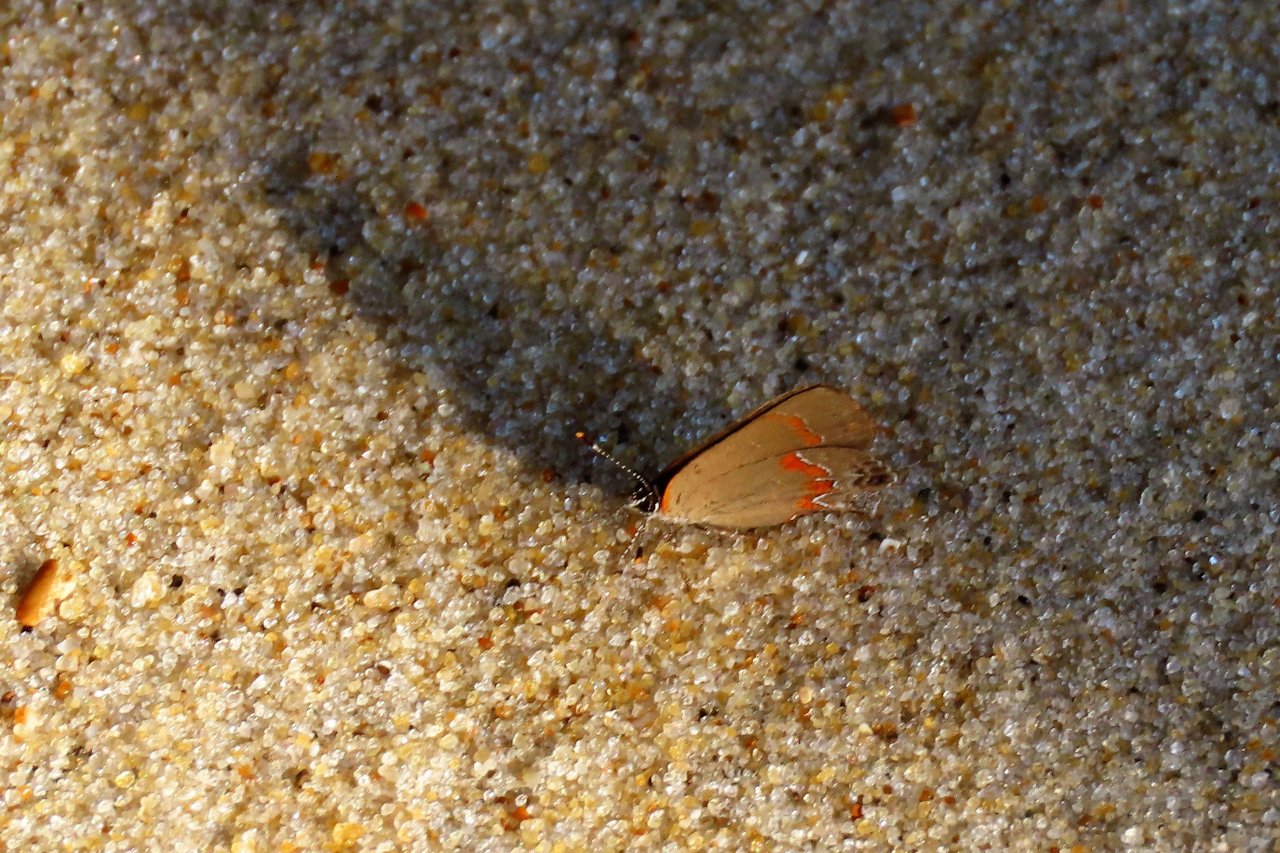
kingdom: Animalia
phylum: Arthropoda
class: Insecta
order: Lepidoptera
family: Lycaenidae
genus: Calycopis
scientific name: Calycopis cecrops
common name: Red-banded Hairstreak
